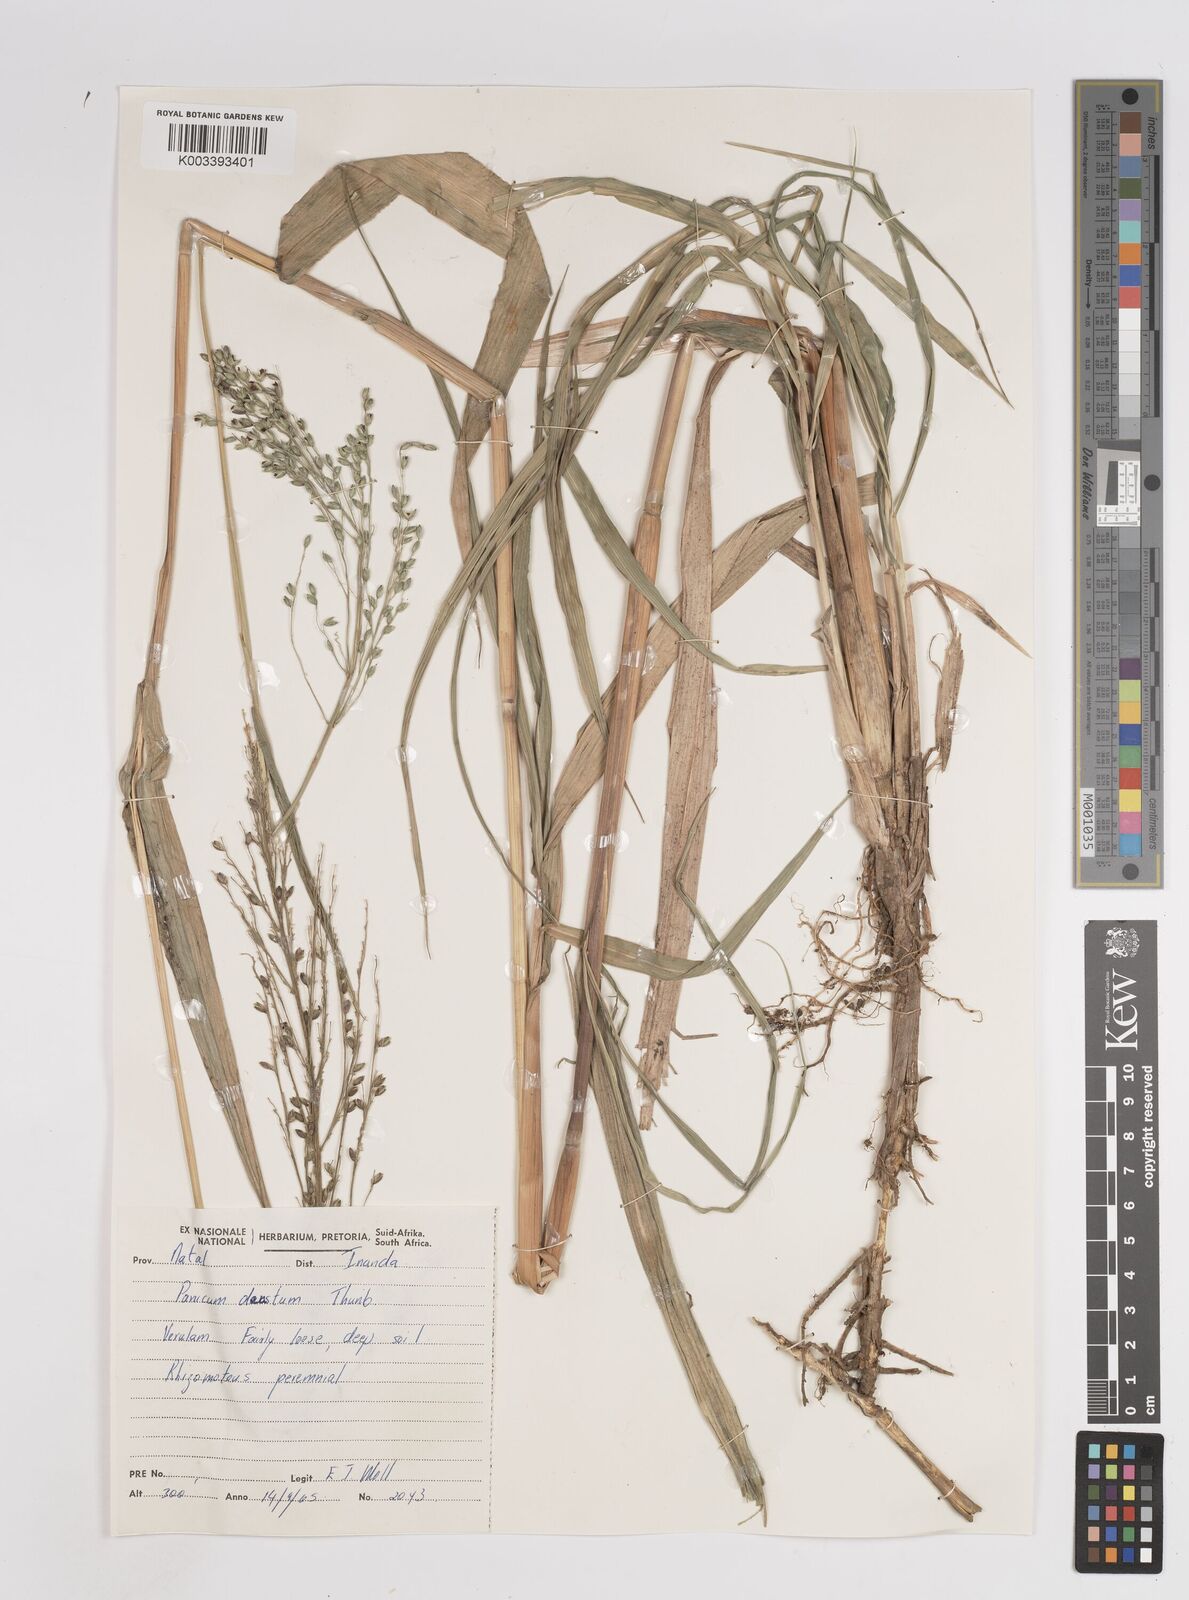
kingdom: Plantae
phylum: Tracheophyta
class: Liliopsida
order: Poales
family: Poaceae
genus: Panicum
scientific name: Panicum deustum
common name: Reed panicum
